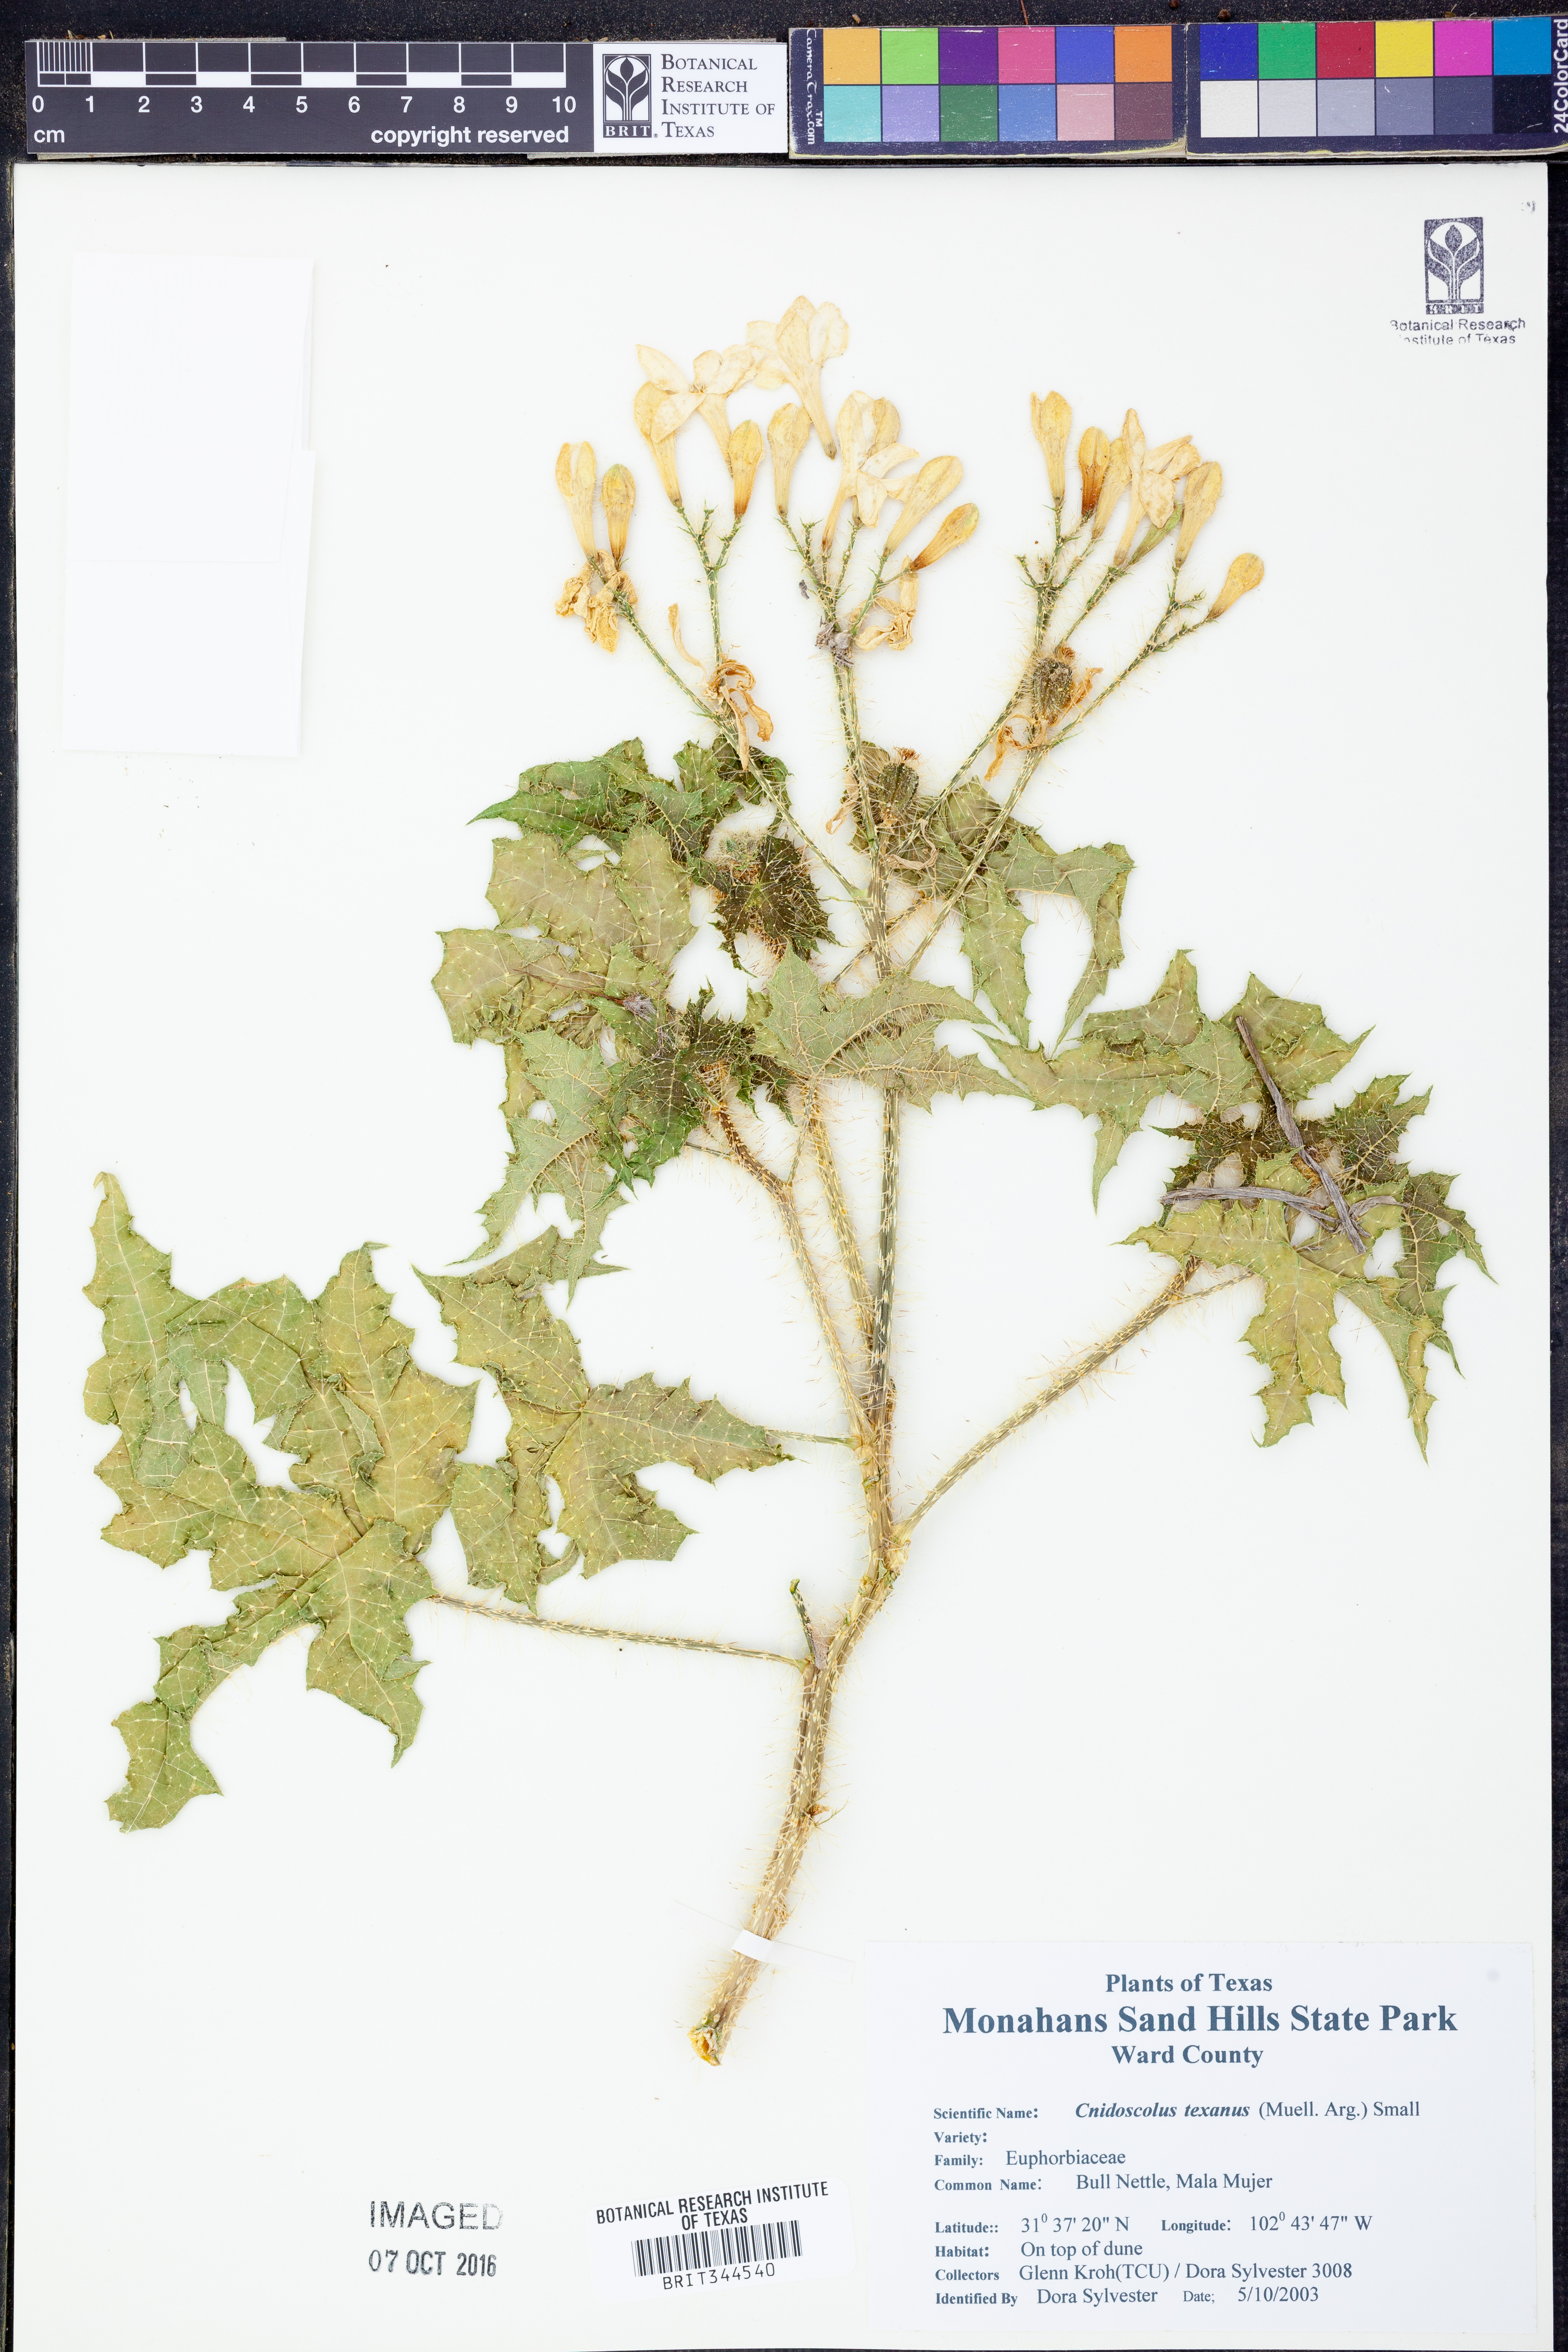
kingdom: Plantae
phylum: Tracheophyta
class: Magnoliopsida
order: Malpighiales
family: Euphorbiaceae
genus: Cnidoscolus
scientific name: Cnidoscolus texanus
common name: Texas bull-nettle
